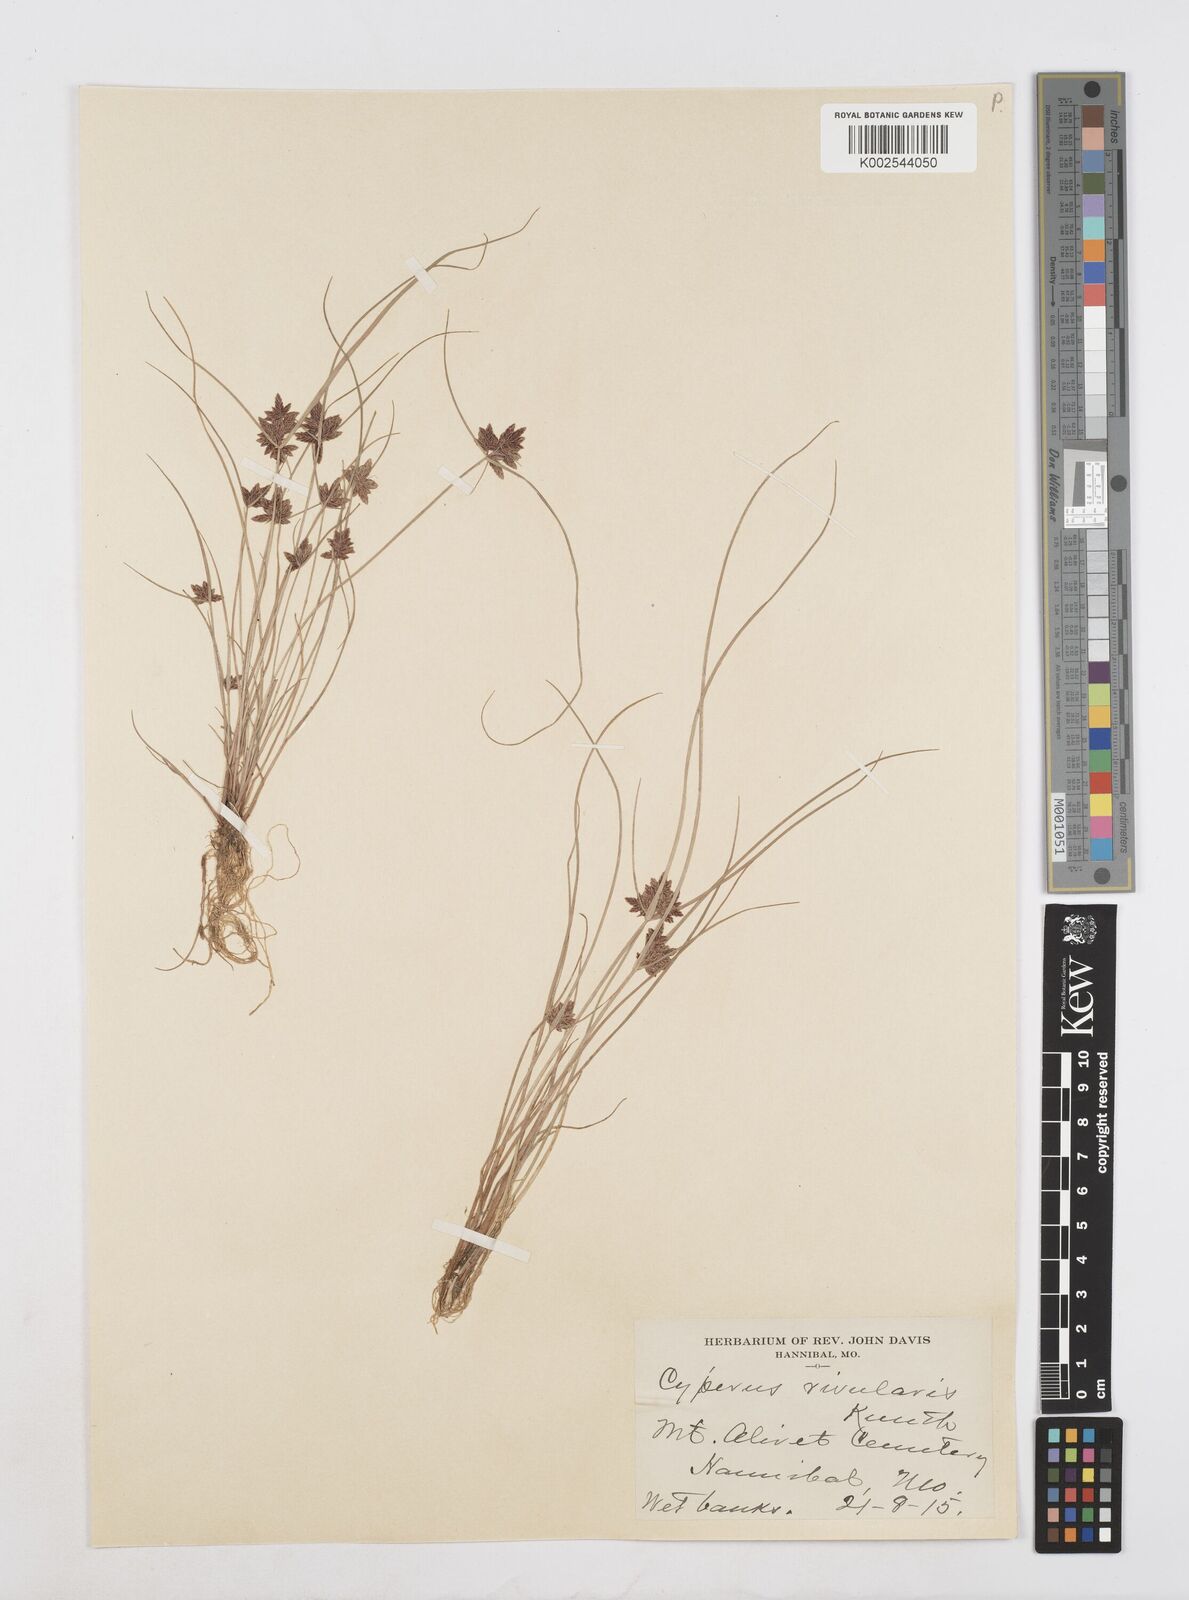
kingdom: Plantae
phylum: Tracheophyta
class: Liliopsida
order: Poales
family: Cyperaceae
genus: Cyperus
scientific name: Cyperus bipartitus
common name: Brook flatsedge
